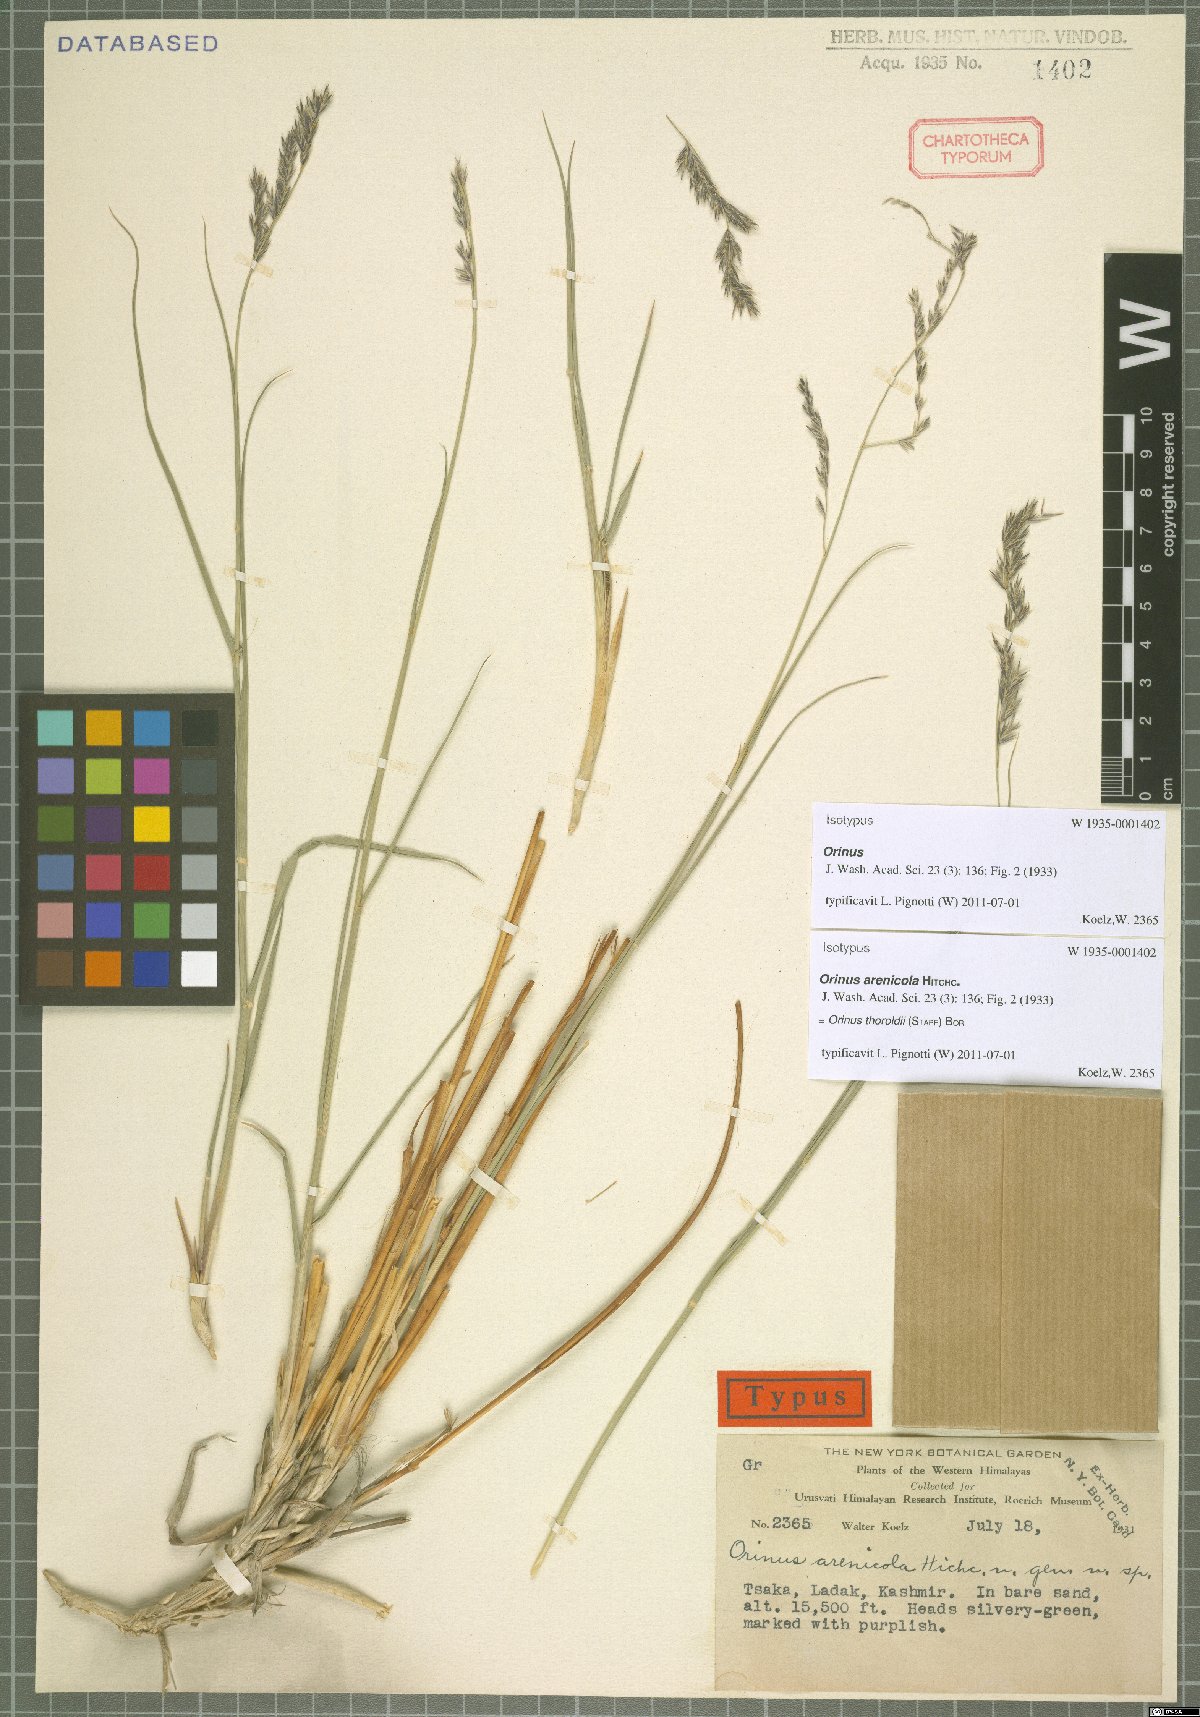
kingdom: Plantae
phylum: Tracheophyta
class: Liliopsida
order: Poales
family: Poaceae
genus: Orinus
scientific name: Orinus thoroldii
